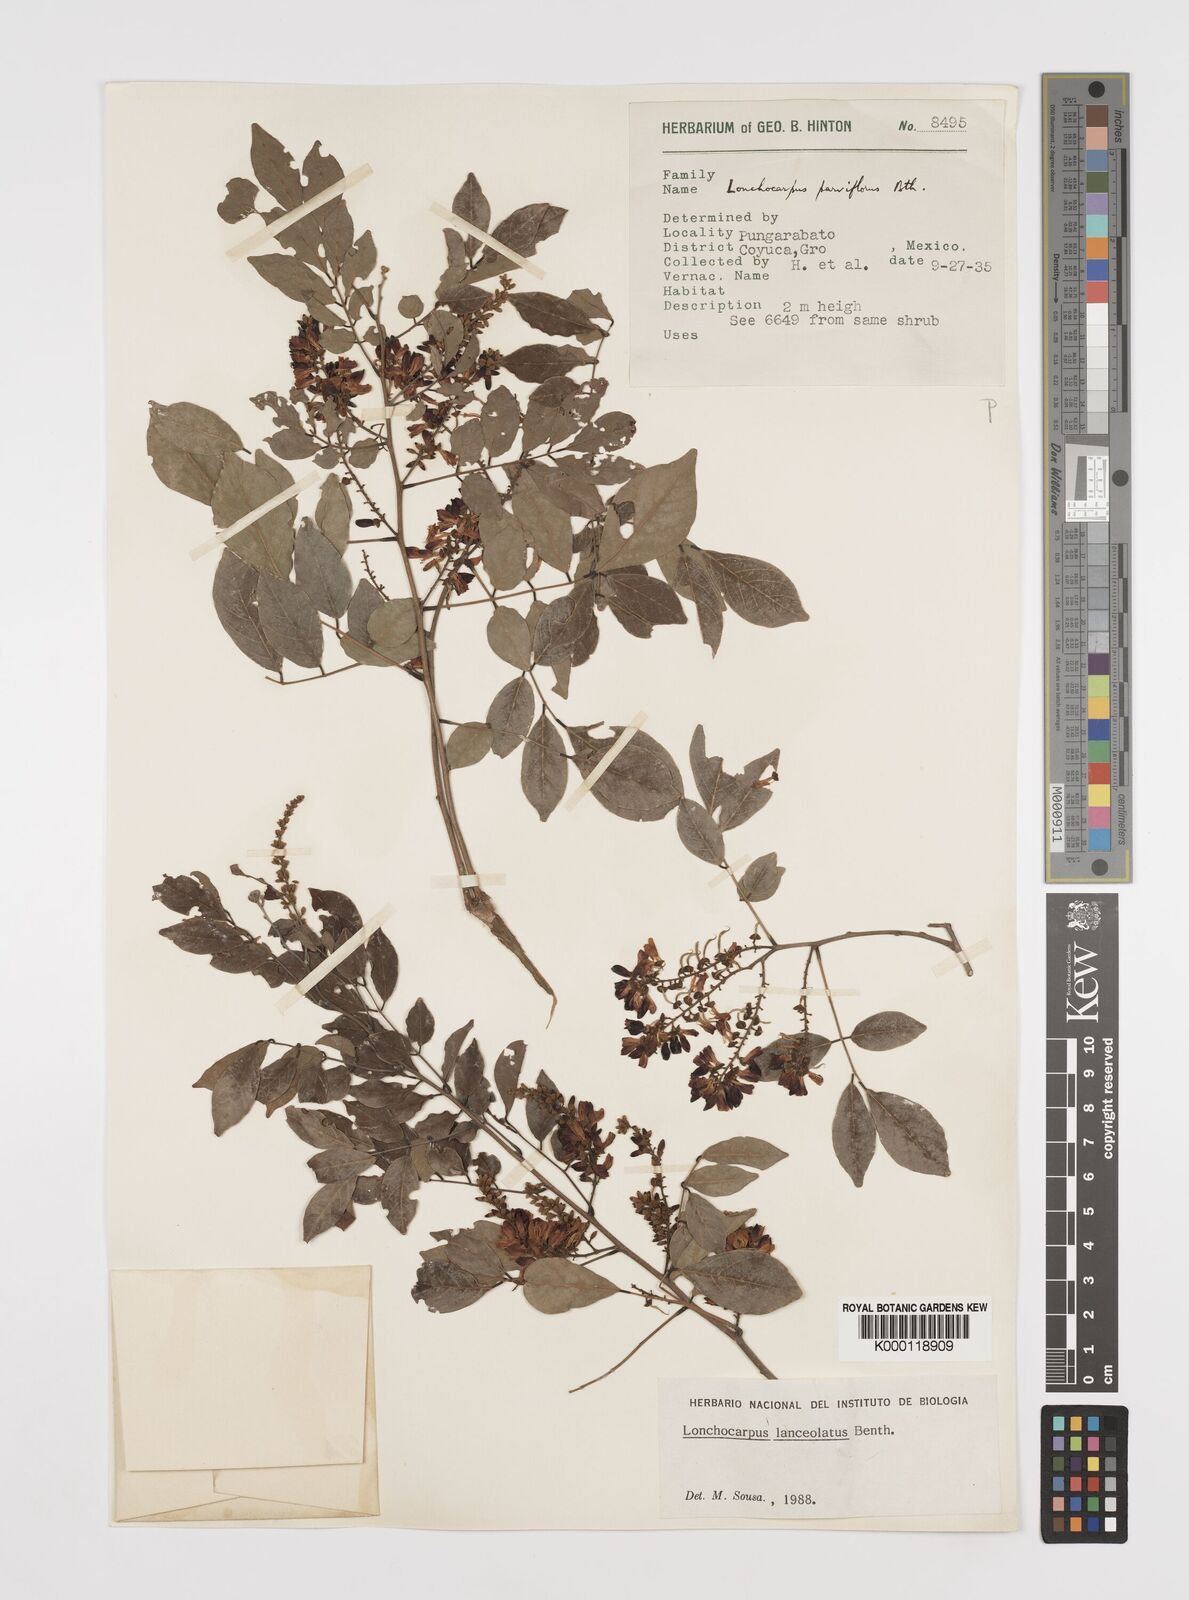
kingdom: Plantae
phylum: Tracheophyta
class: Magnoliopsida
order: Fabales
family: Fabaceae
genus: Lonchocarpus
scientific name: Lonchocarpus lanceolatus
